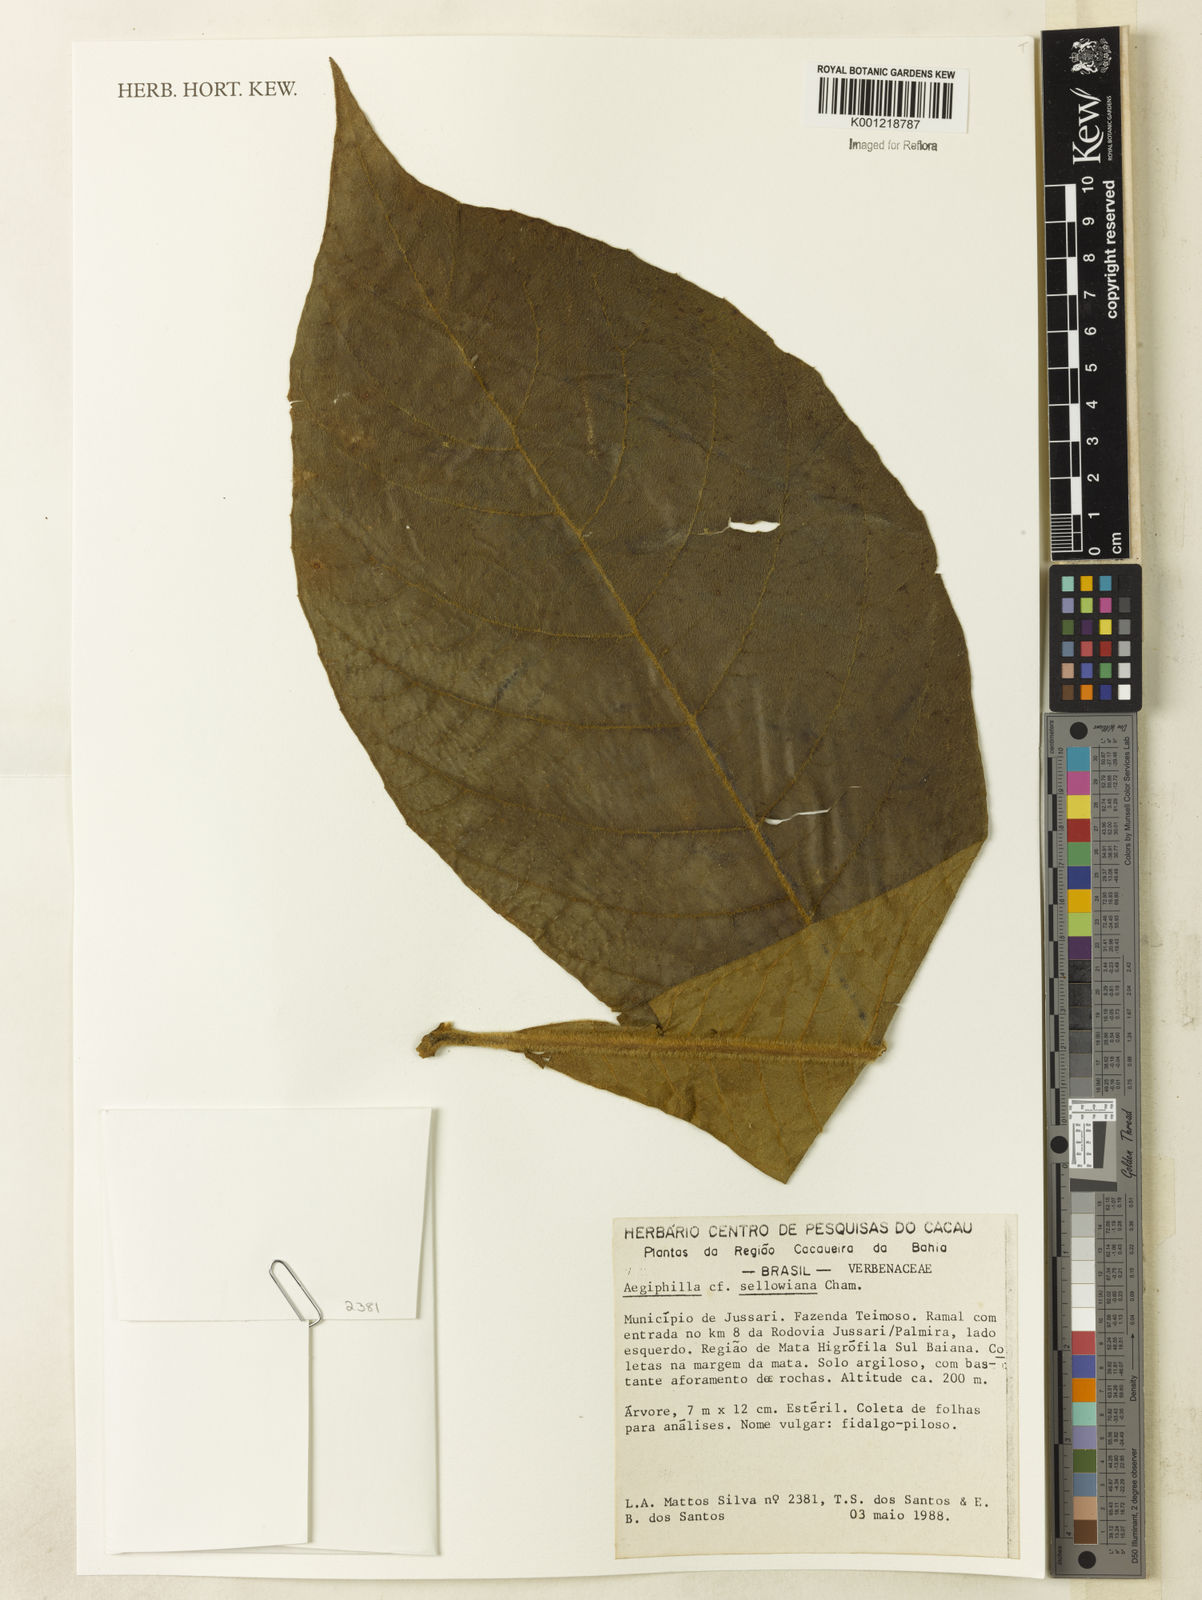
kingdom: Plantae
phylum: Tracheophyta
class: Magnoliopsida
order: Lamiales
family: Lamiaceae
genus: Aegiphila
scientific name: Aegiphila verticillata
